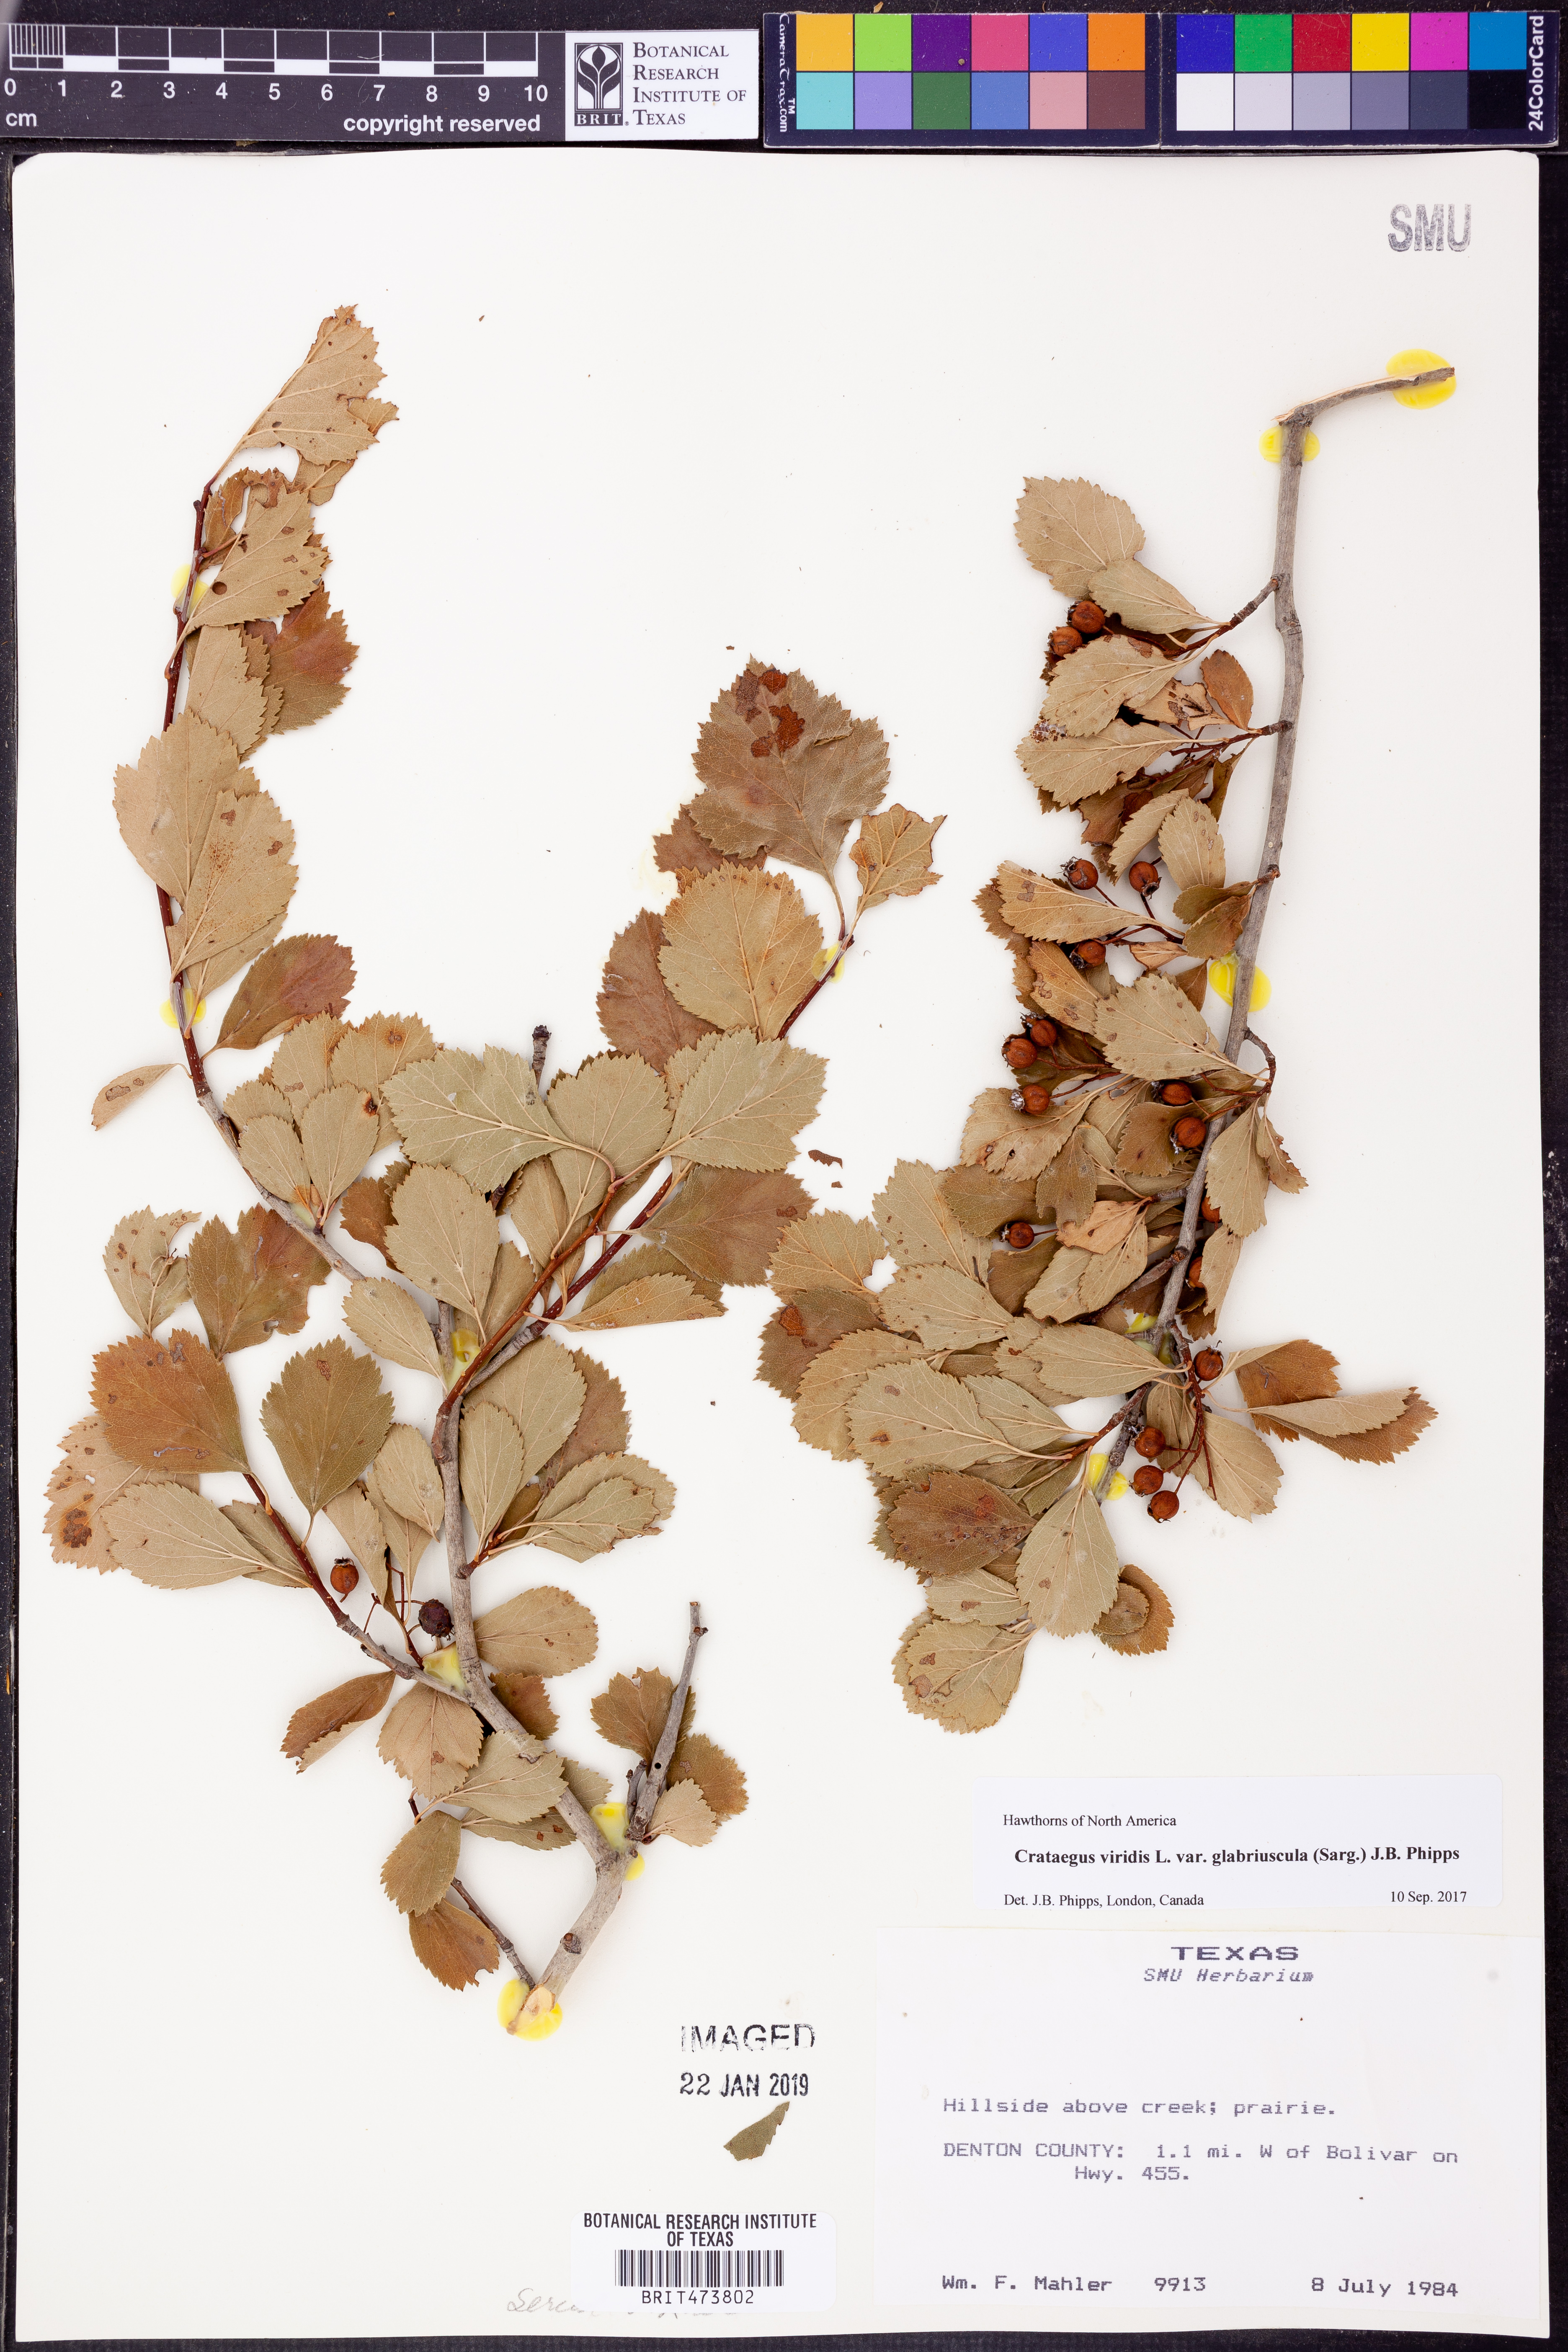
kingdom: Plantae
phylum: Tracheophyta
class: Magnoliopsida
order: Rosales
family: Rosaceae
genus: Crataegus
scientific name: Crataegus viridis
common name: Southernthorn
